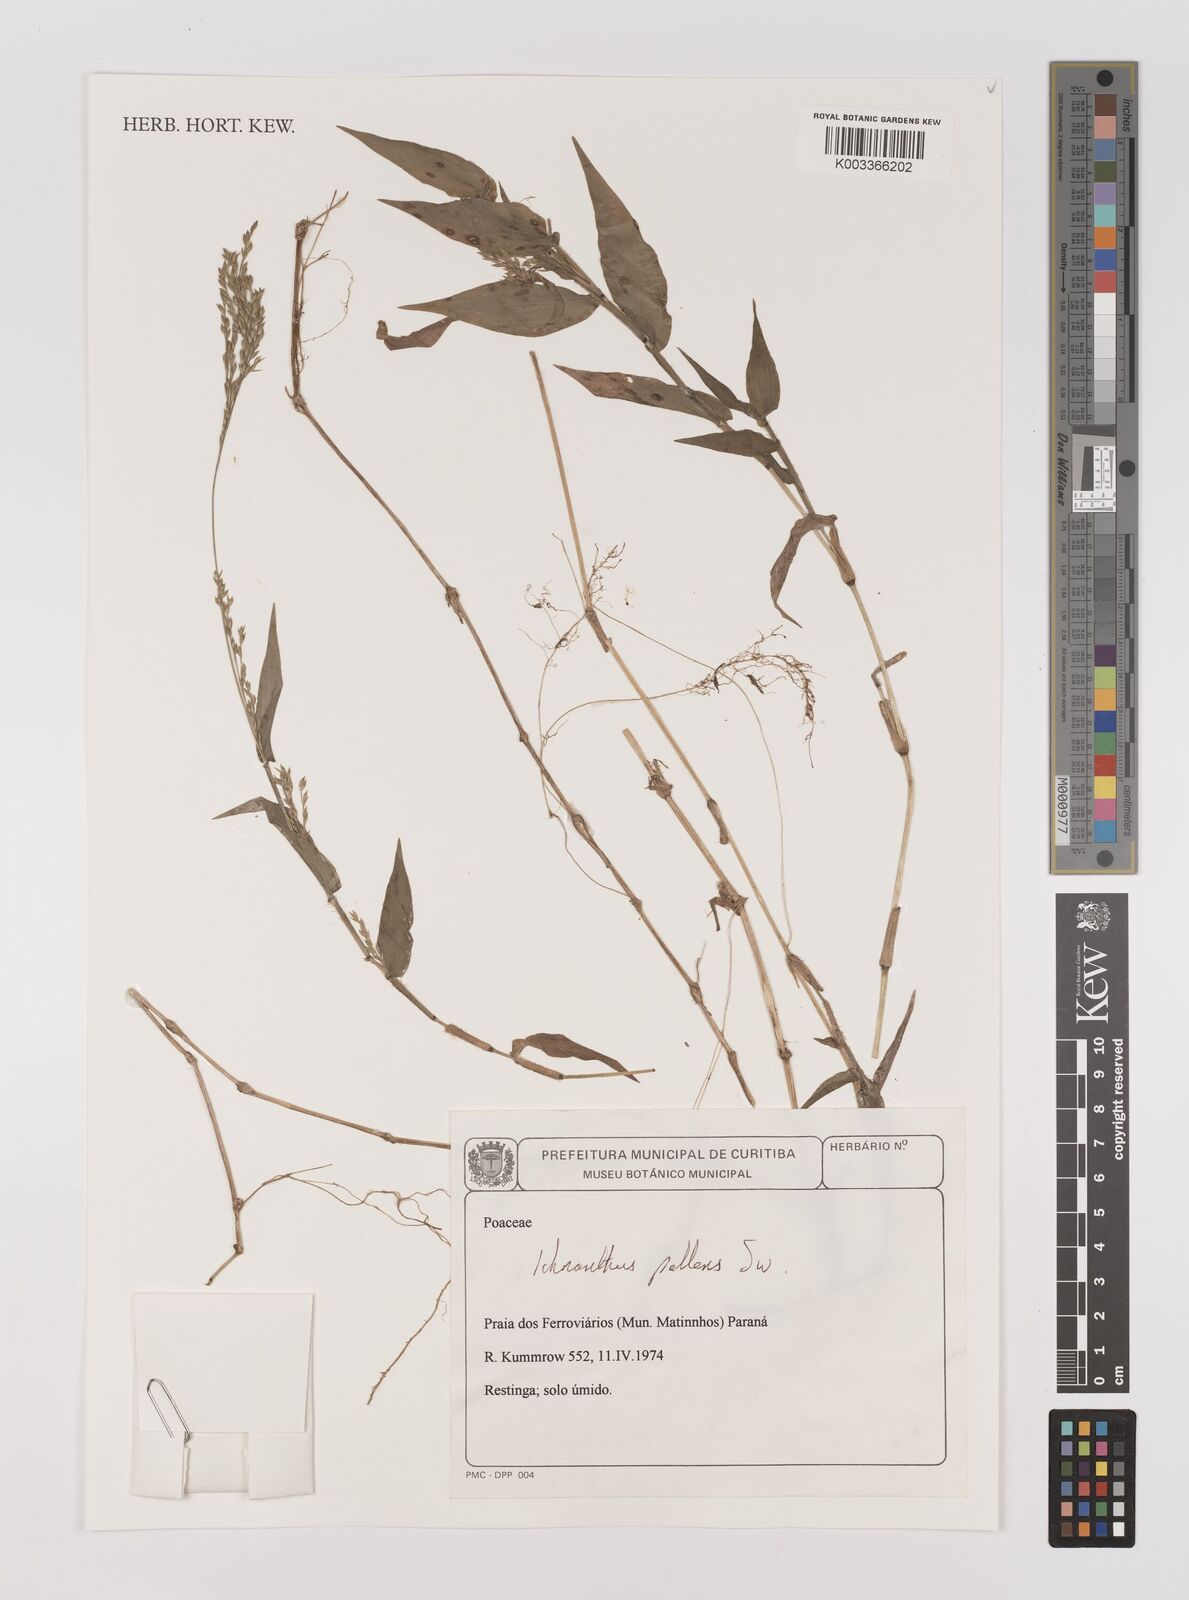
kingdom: Plantae
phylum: Tracheophyta
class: Liliopsida
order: Poales
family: Poaceae
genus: Ichnanthus
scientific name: Ichnanthus pallens
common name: Water grass
